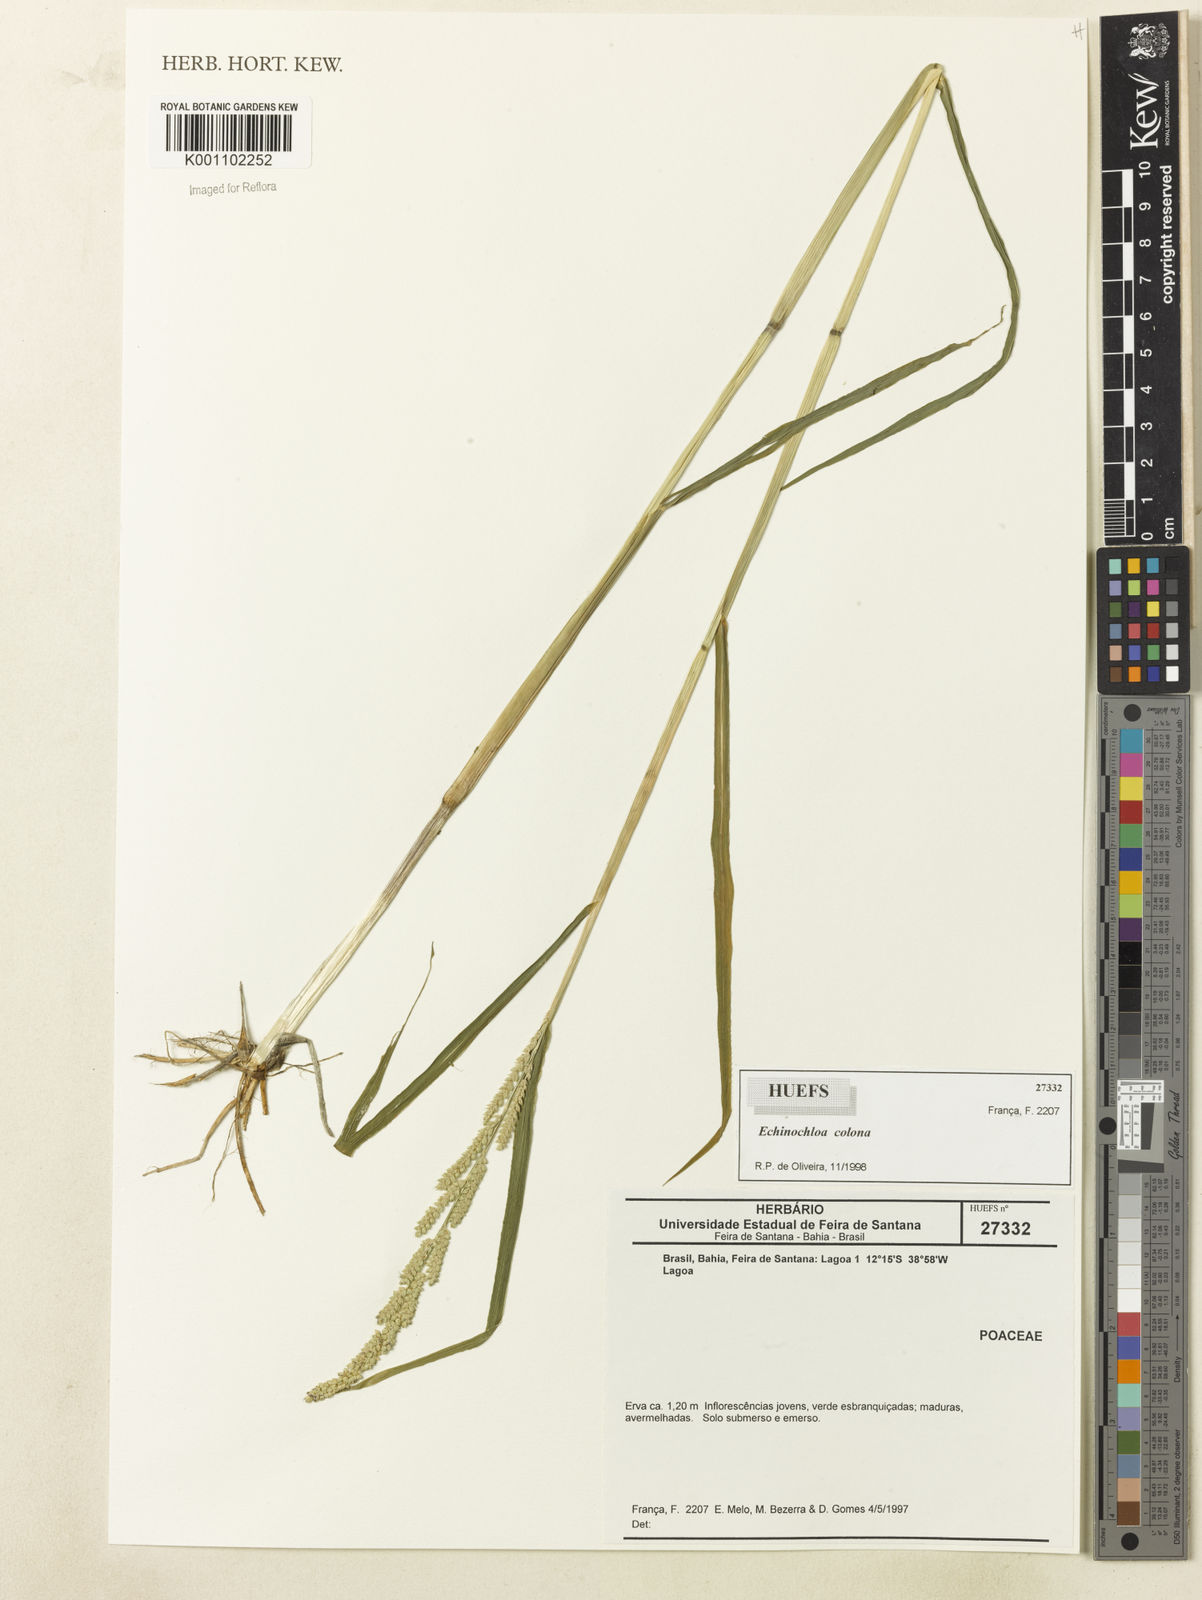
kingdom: Plantae
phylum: Tracheophyta
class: Liliopsida
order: Poales
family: Poaceae
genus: Echinochloa
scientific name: Echinochloa colonum
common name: Jungle rice
